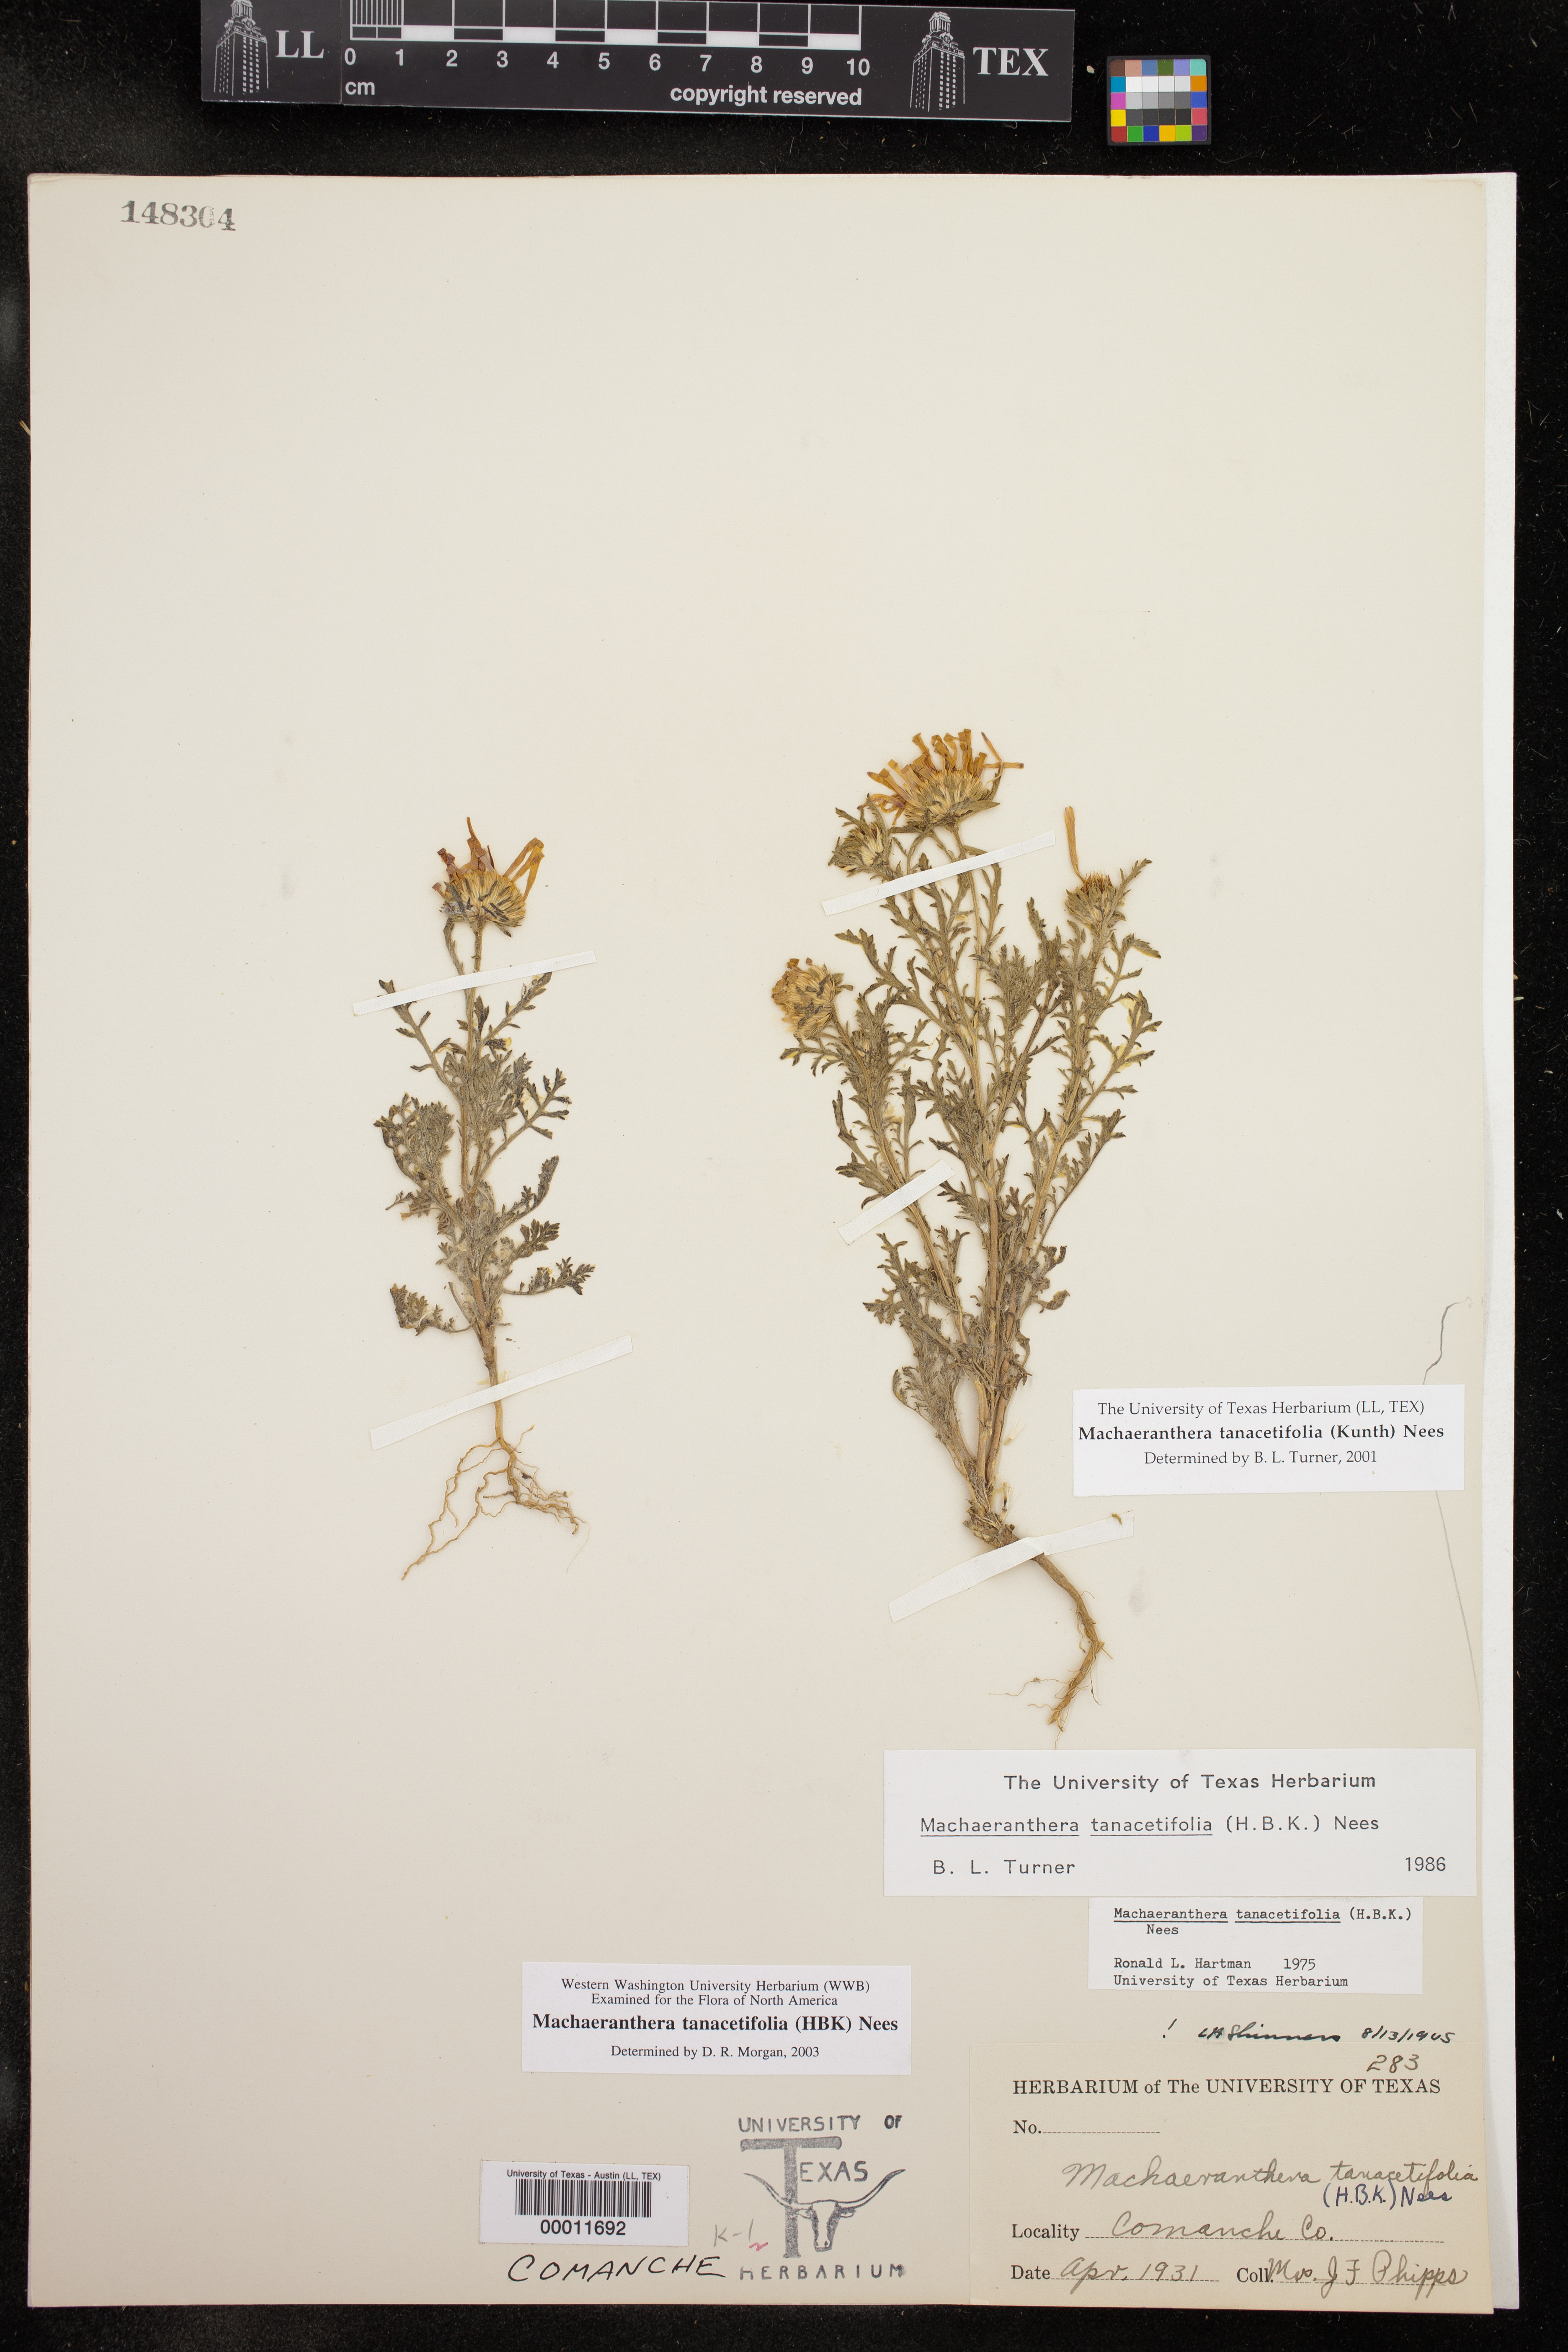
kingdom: Plantae
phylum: Tracheophyta
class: Magnoliopsida
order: Asterales
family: Asteraceae
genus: Machaeranthera
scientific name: Machaeranthera tanacetifolia
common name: Tansy-aster
